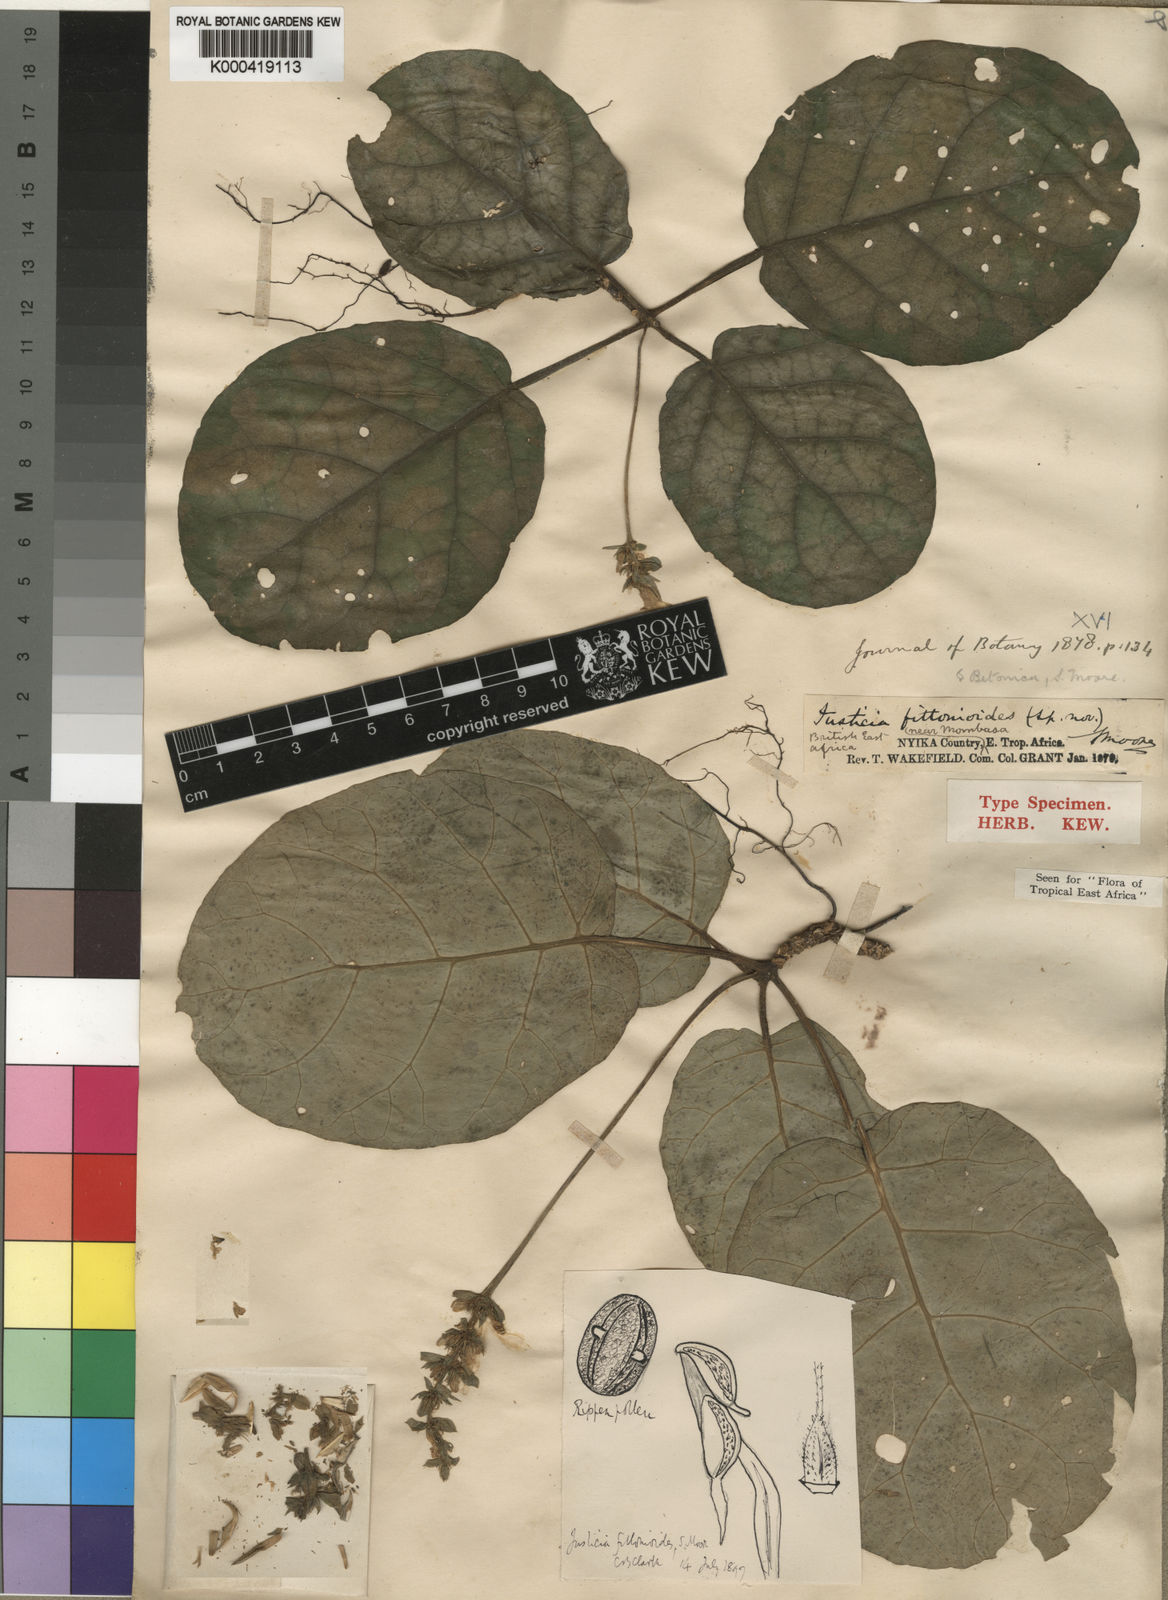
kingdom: Plantae
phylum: Tracheophyta
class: Magnoliopsida
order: Lamiales
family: Acanthaceae
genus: Nicoteba
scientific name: Nicoteba fittonioides
